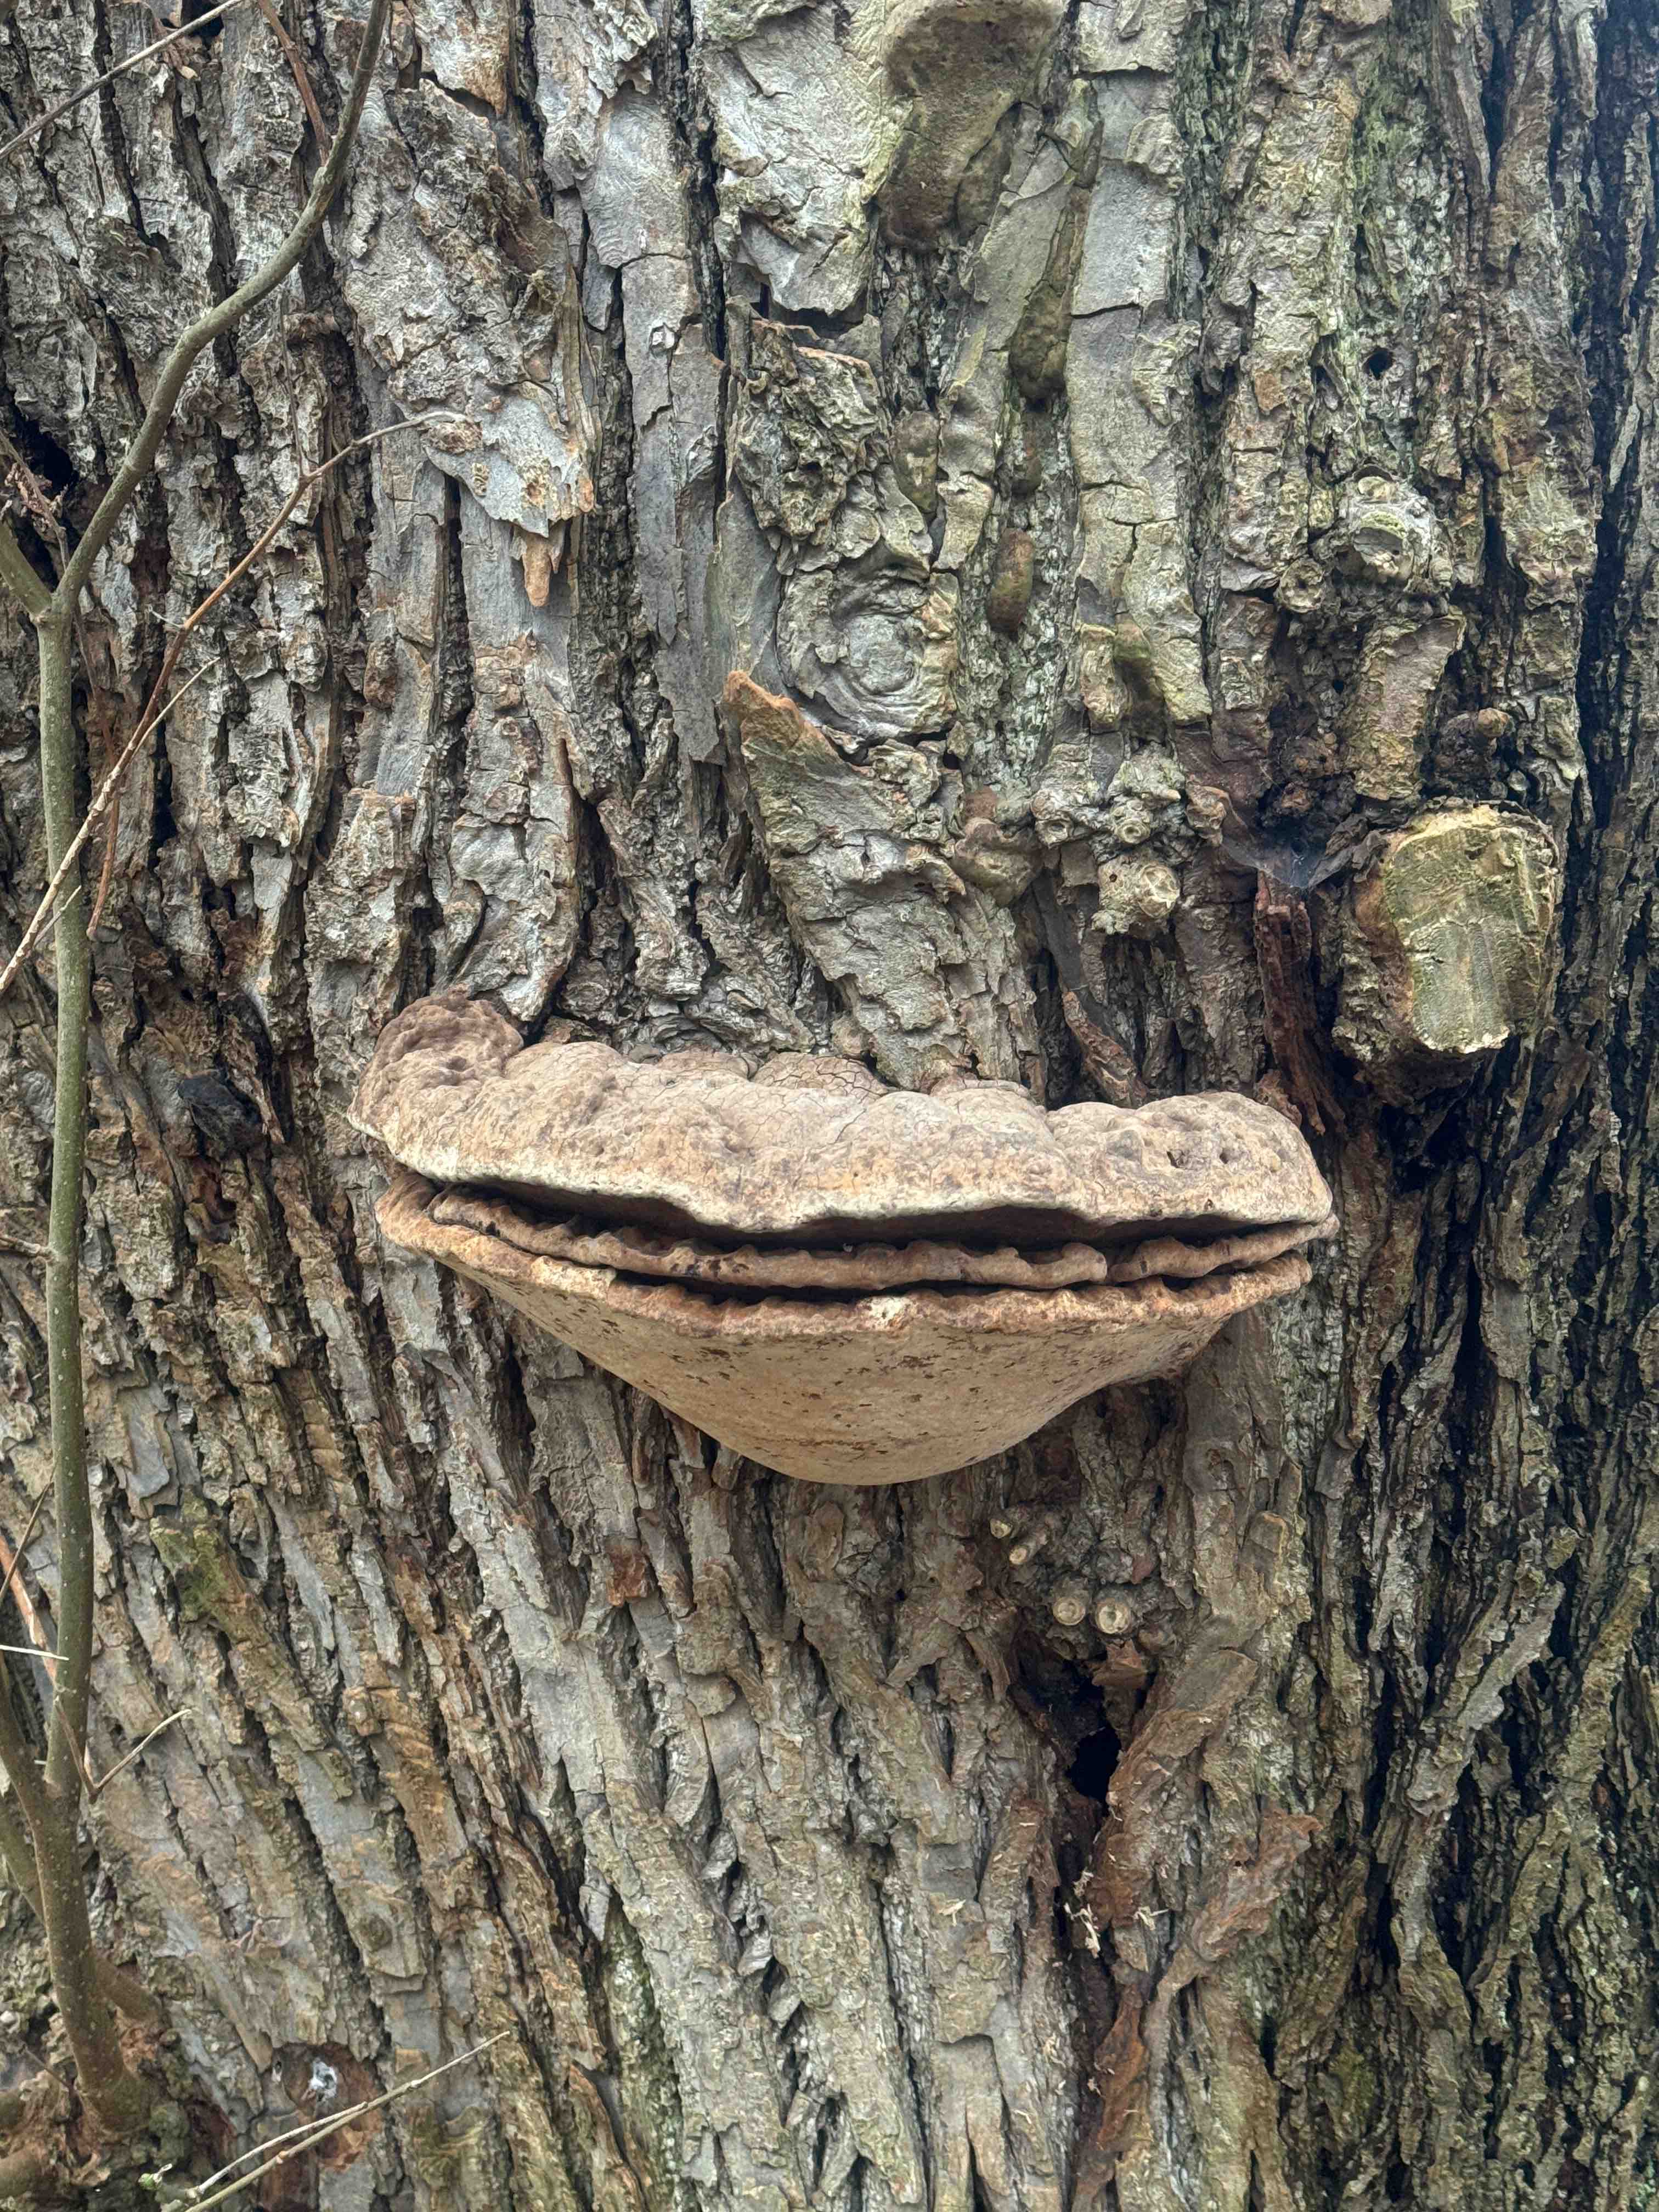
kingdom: Fungi
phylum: Basidiomycota
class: Agaricomycetes
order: Polyporales
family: Polyporaceae
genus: Ganoderma
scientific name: Ganoderma adspersum
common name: grov lakporesvamp
